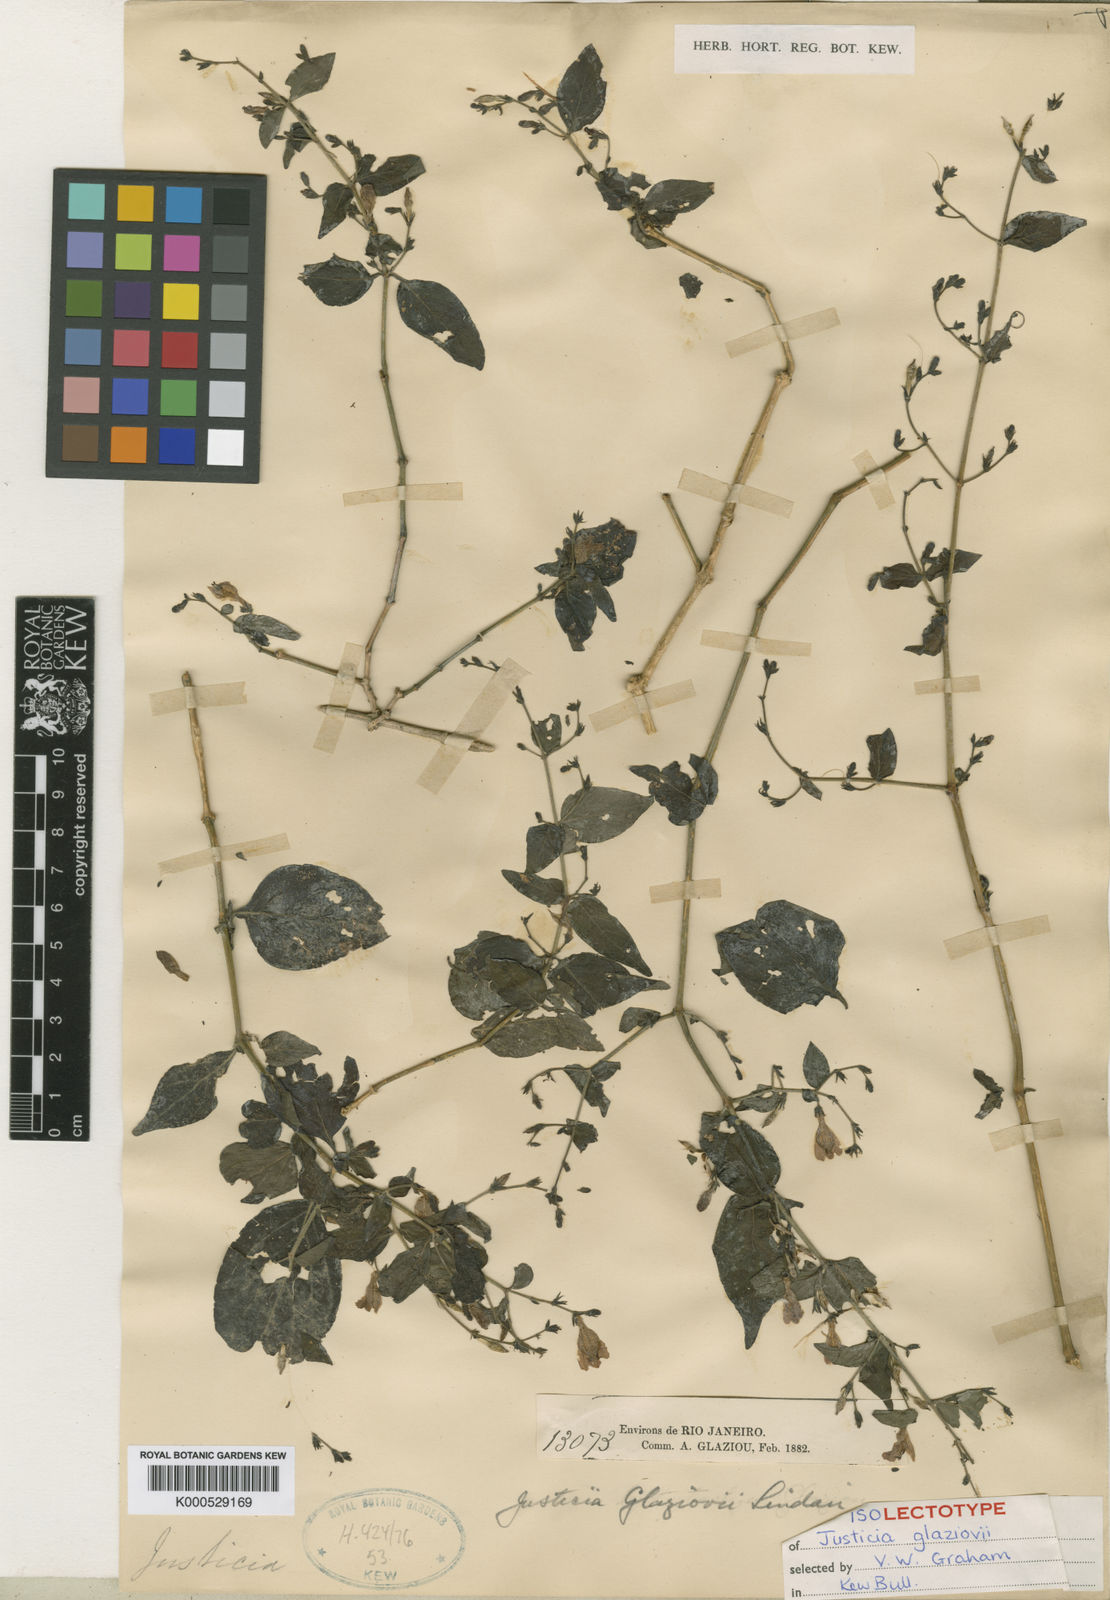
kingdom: Plantae
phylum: Tracheophyta
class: Magnoliopsida
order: Lamiales
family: Acanthaceae
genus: Justicia
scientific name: Justicia rubriflora
